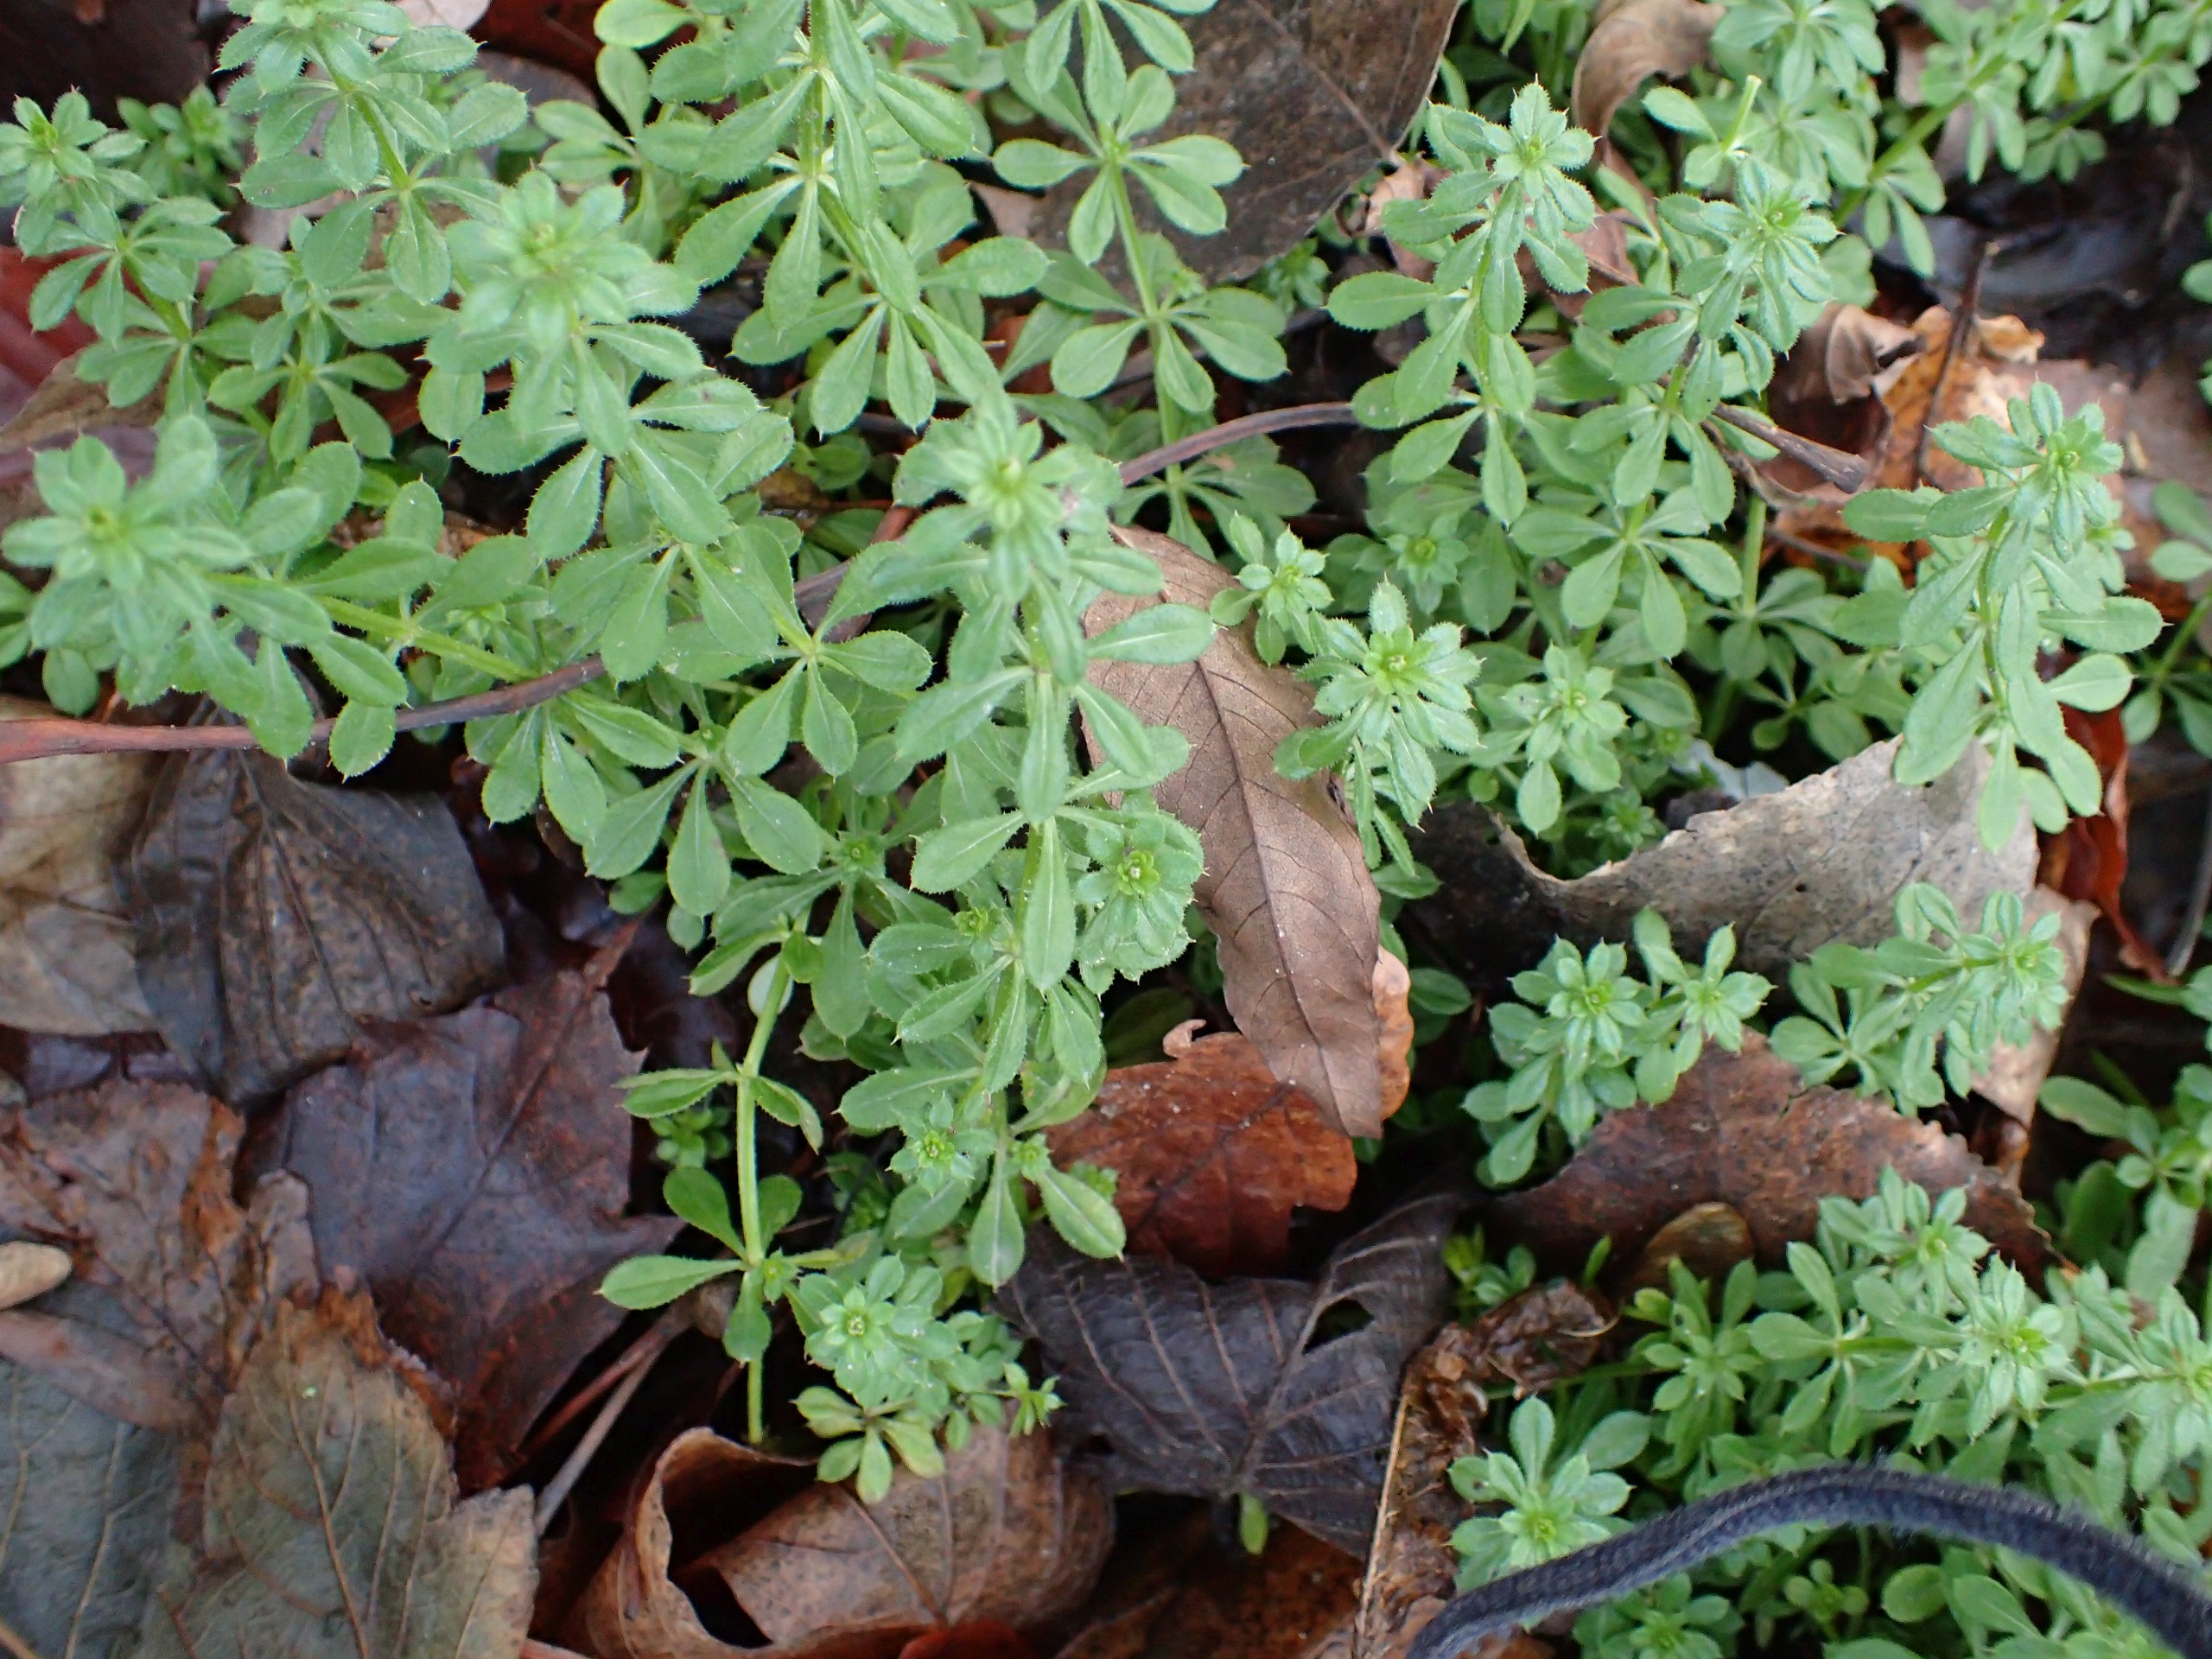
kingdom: Plantae
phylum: Tracheophyta
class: Magnoliopsida
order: Gentianales
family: Rubiaceae
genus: Galium
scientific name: Galium aparine
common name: Burre-snerre
